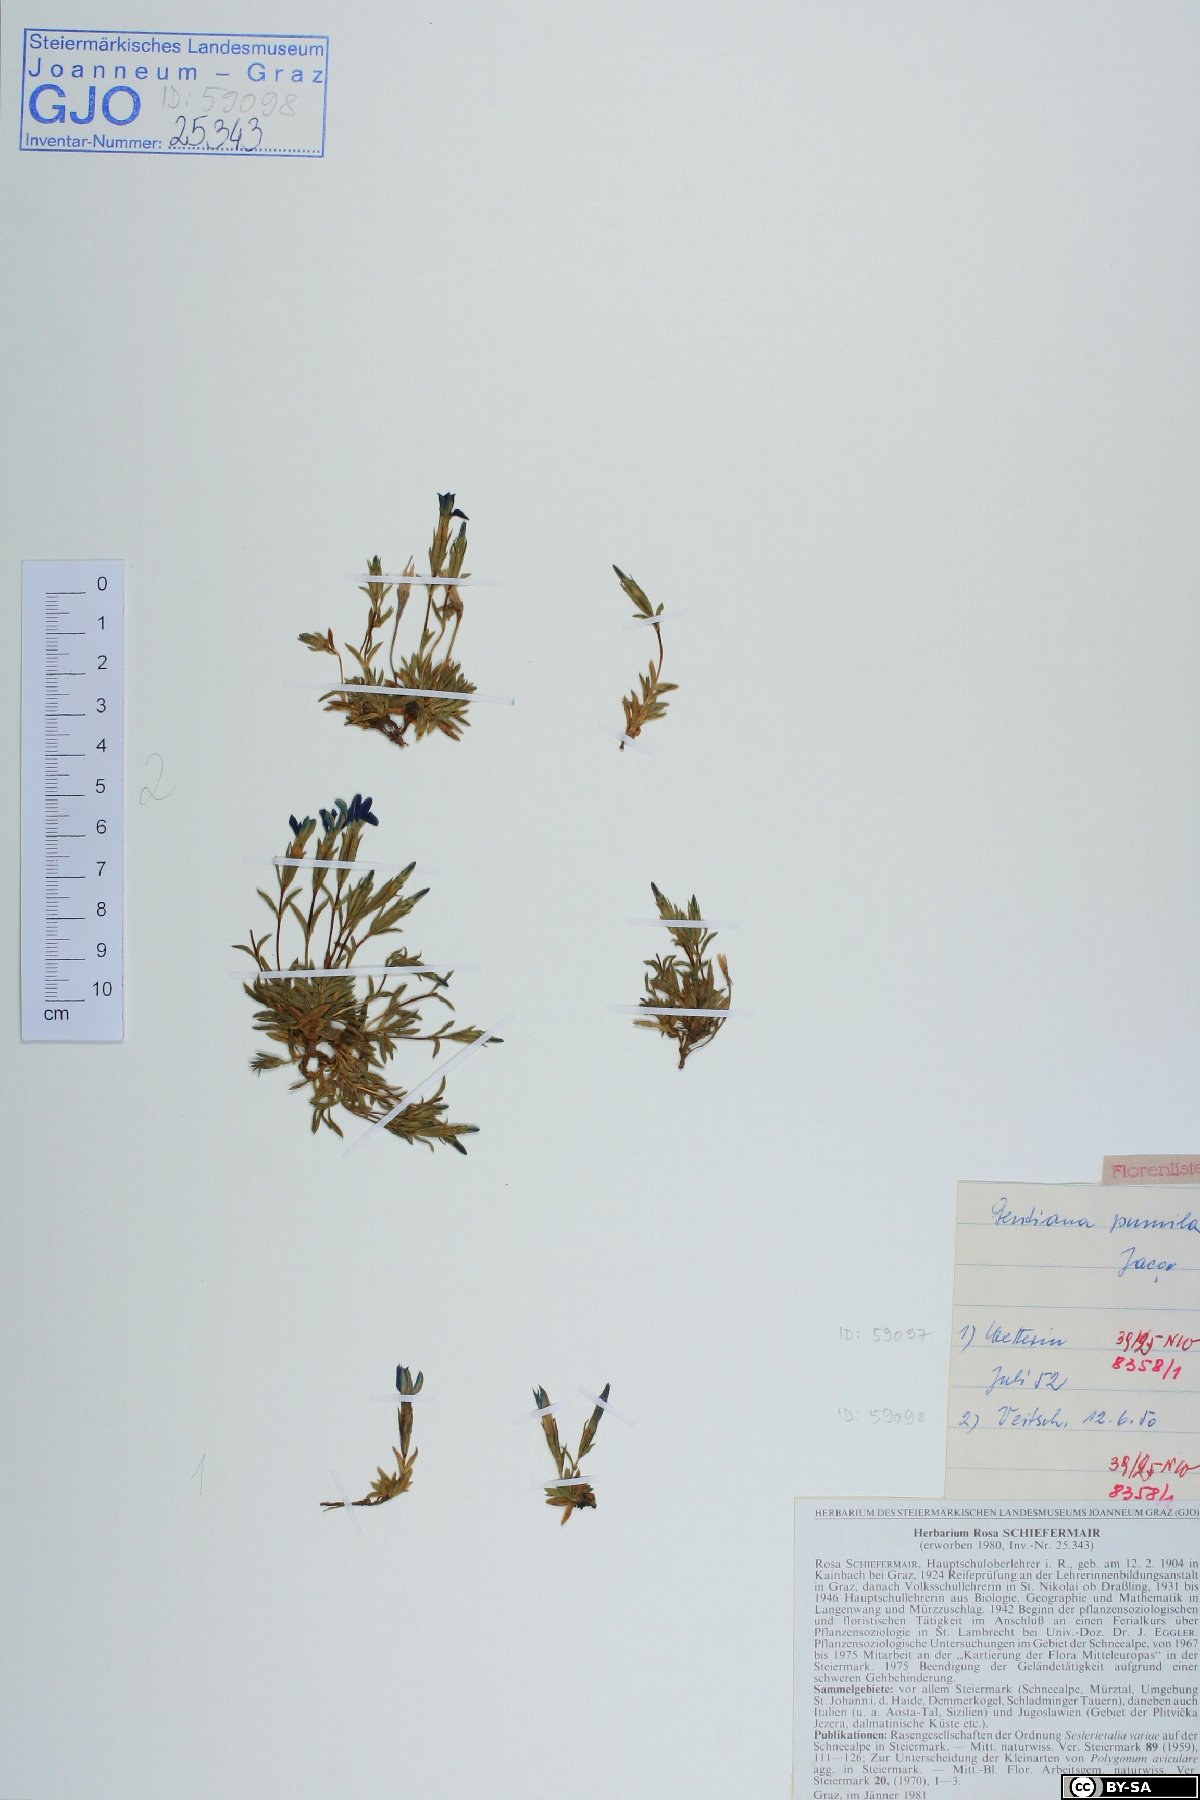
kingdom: Plantae
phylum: Tracheophyta
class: Magnoliopsida
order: Gentianales
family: Gentianaceae
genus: Gentiana
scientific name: Gentiana pumila
